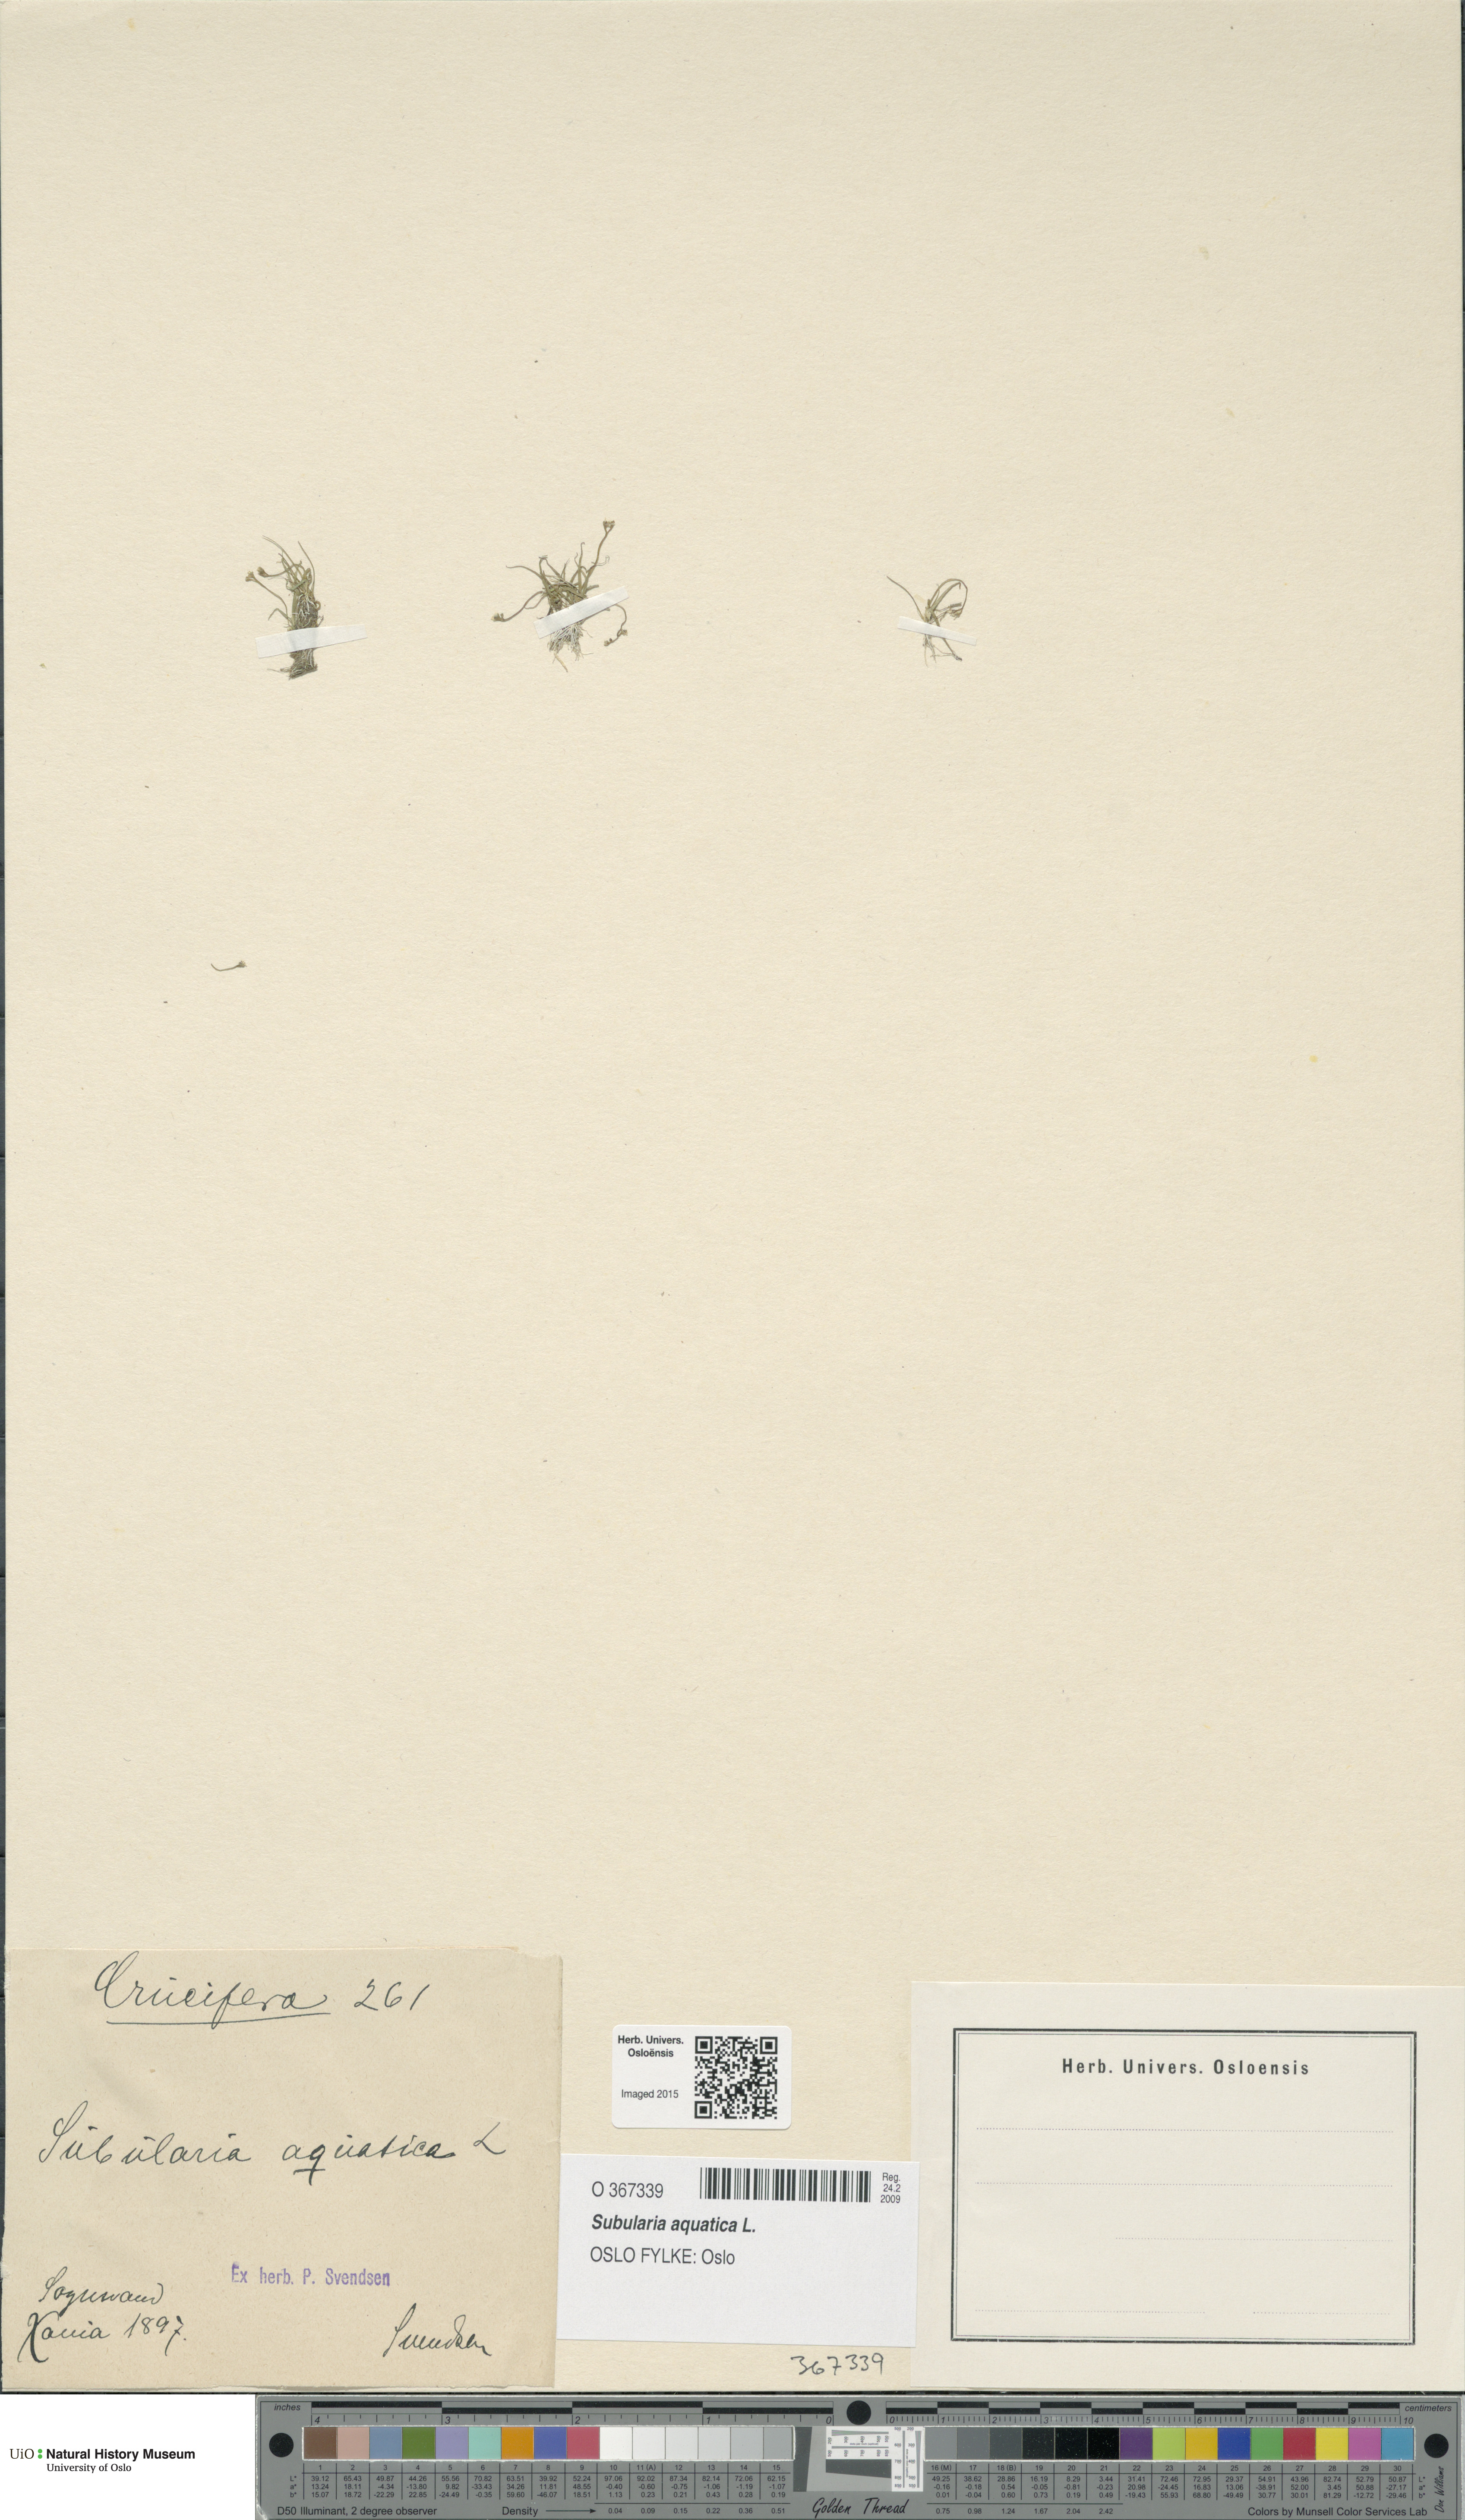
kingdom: Plantae
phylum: Tracheophyta
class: Magnoliopsida
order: Brassicales
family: Brassicaceae
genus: Subularia
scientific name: Subularia aquatica
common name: Awlwort
